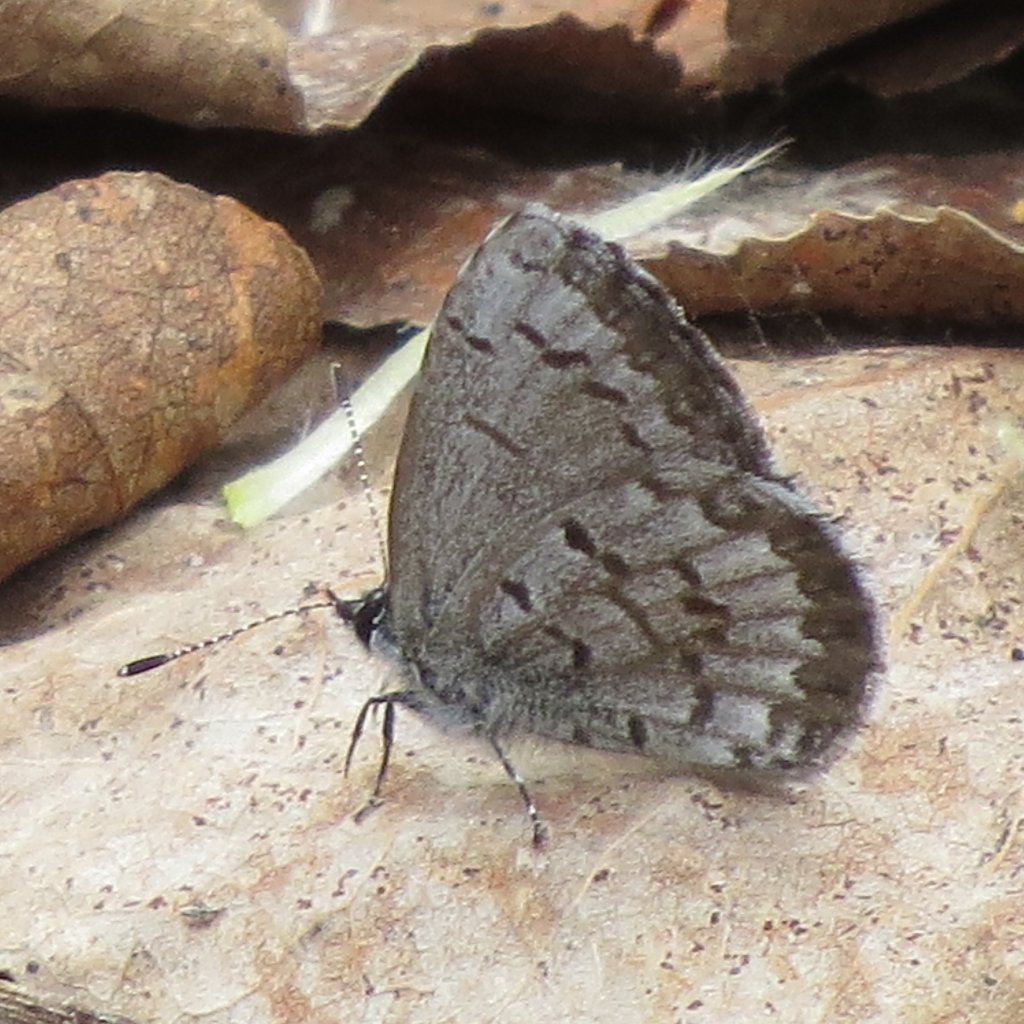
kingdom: Animalia
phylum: Arthropoda
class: Insecta
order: Lepidoptera
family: Lycaenidae
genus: Celastrina
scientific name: Celastrina lucia
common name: Northern Spring Azure
